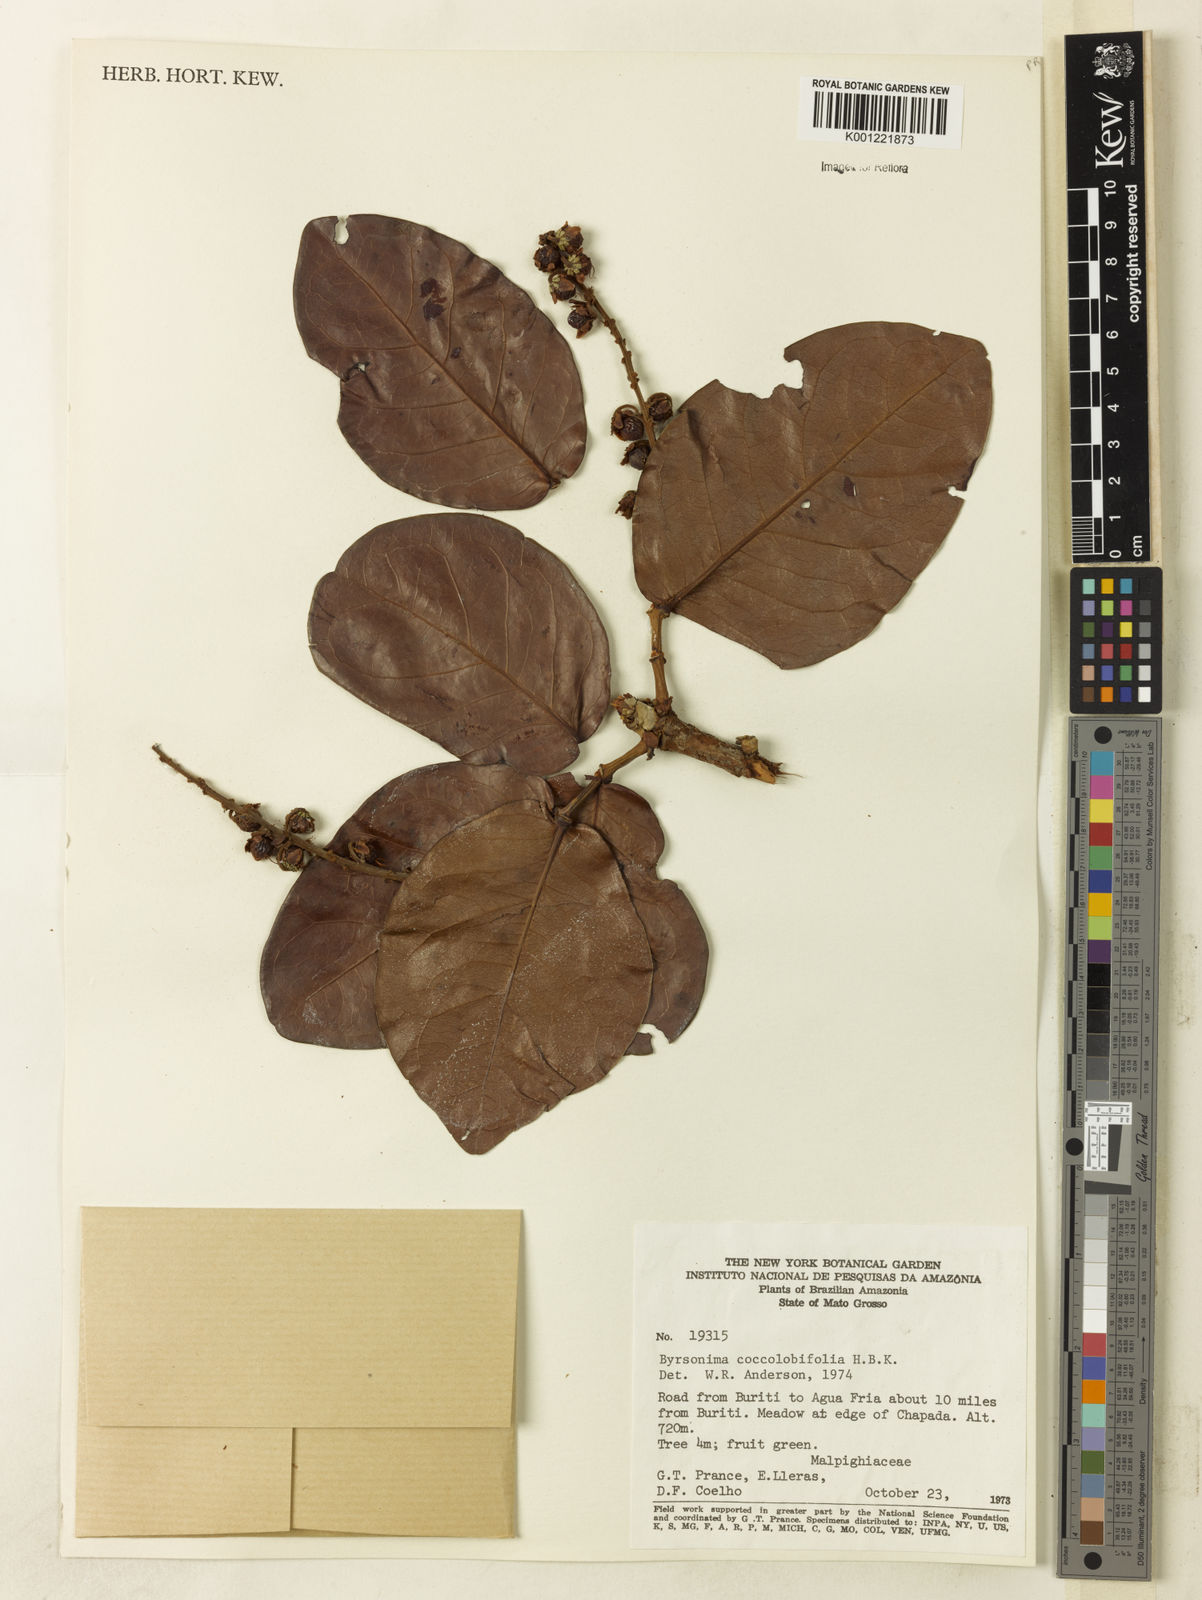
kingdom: Plantae
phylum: Tracheophyta
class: Magnoliopsida
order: Malpighiales
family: Malpighiaceae
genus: Byrsonima
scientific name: Byrsonima coccolobifolia
